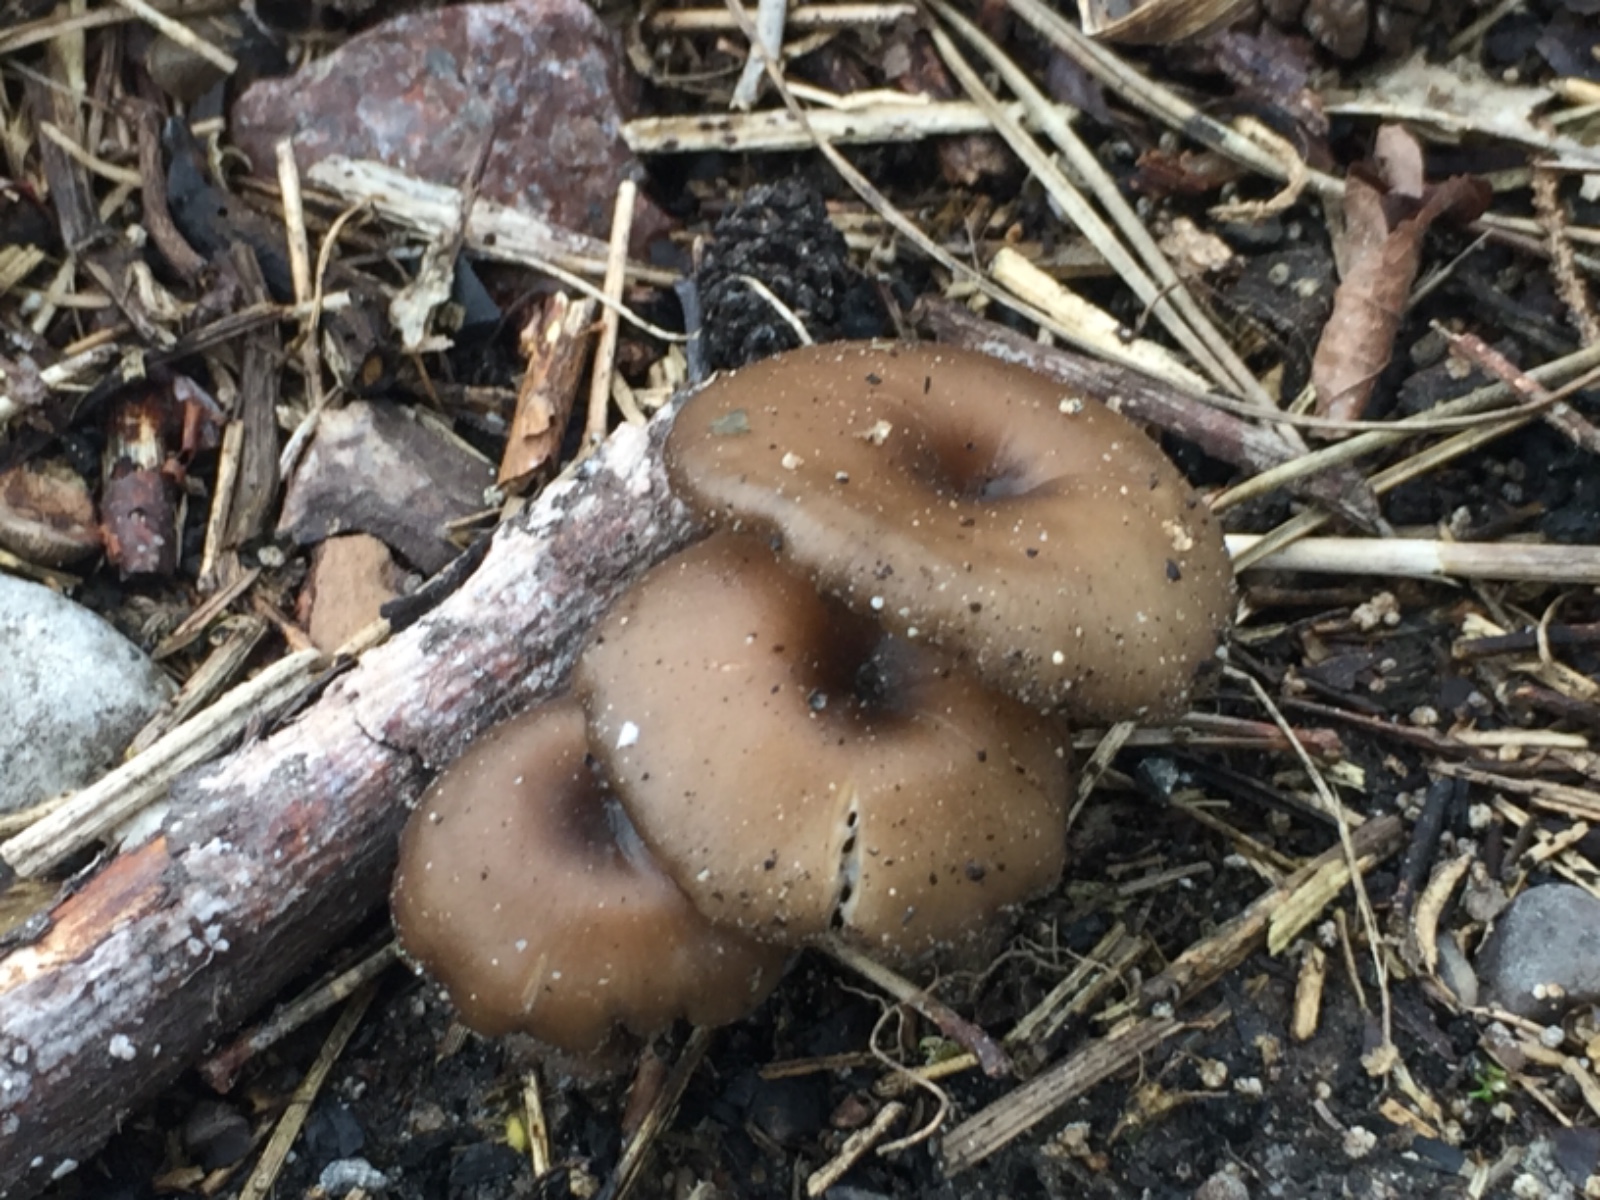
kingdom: Fungi
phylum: Basidiomycota
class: Agaricomycetes
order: Agaricales
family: Tricholomataceae
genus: Myxomphalia
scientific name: Myxomphalia maura
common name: kulhat
